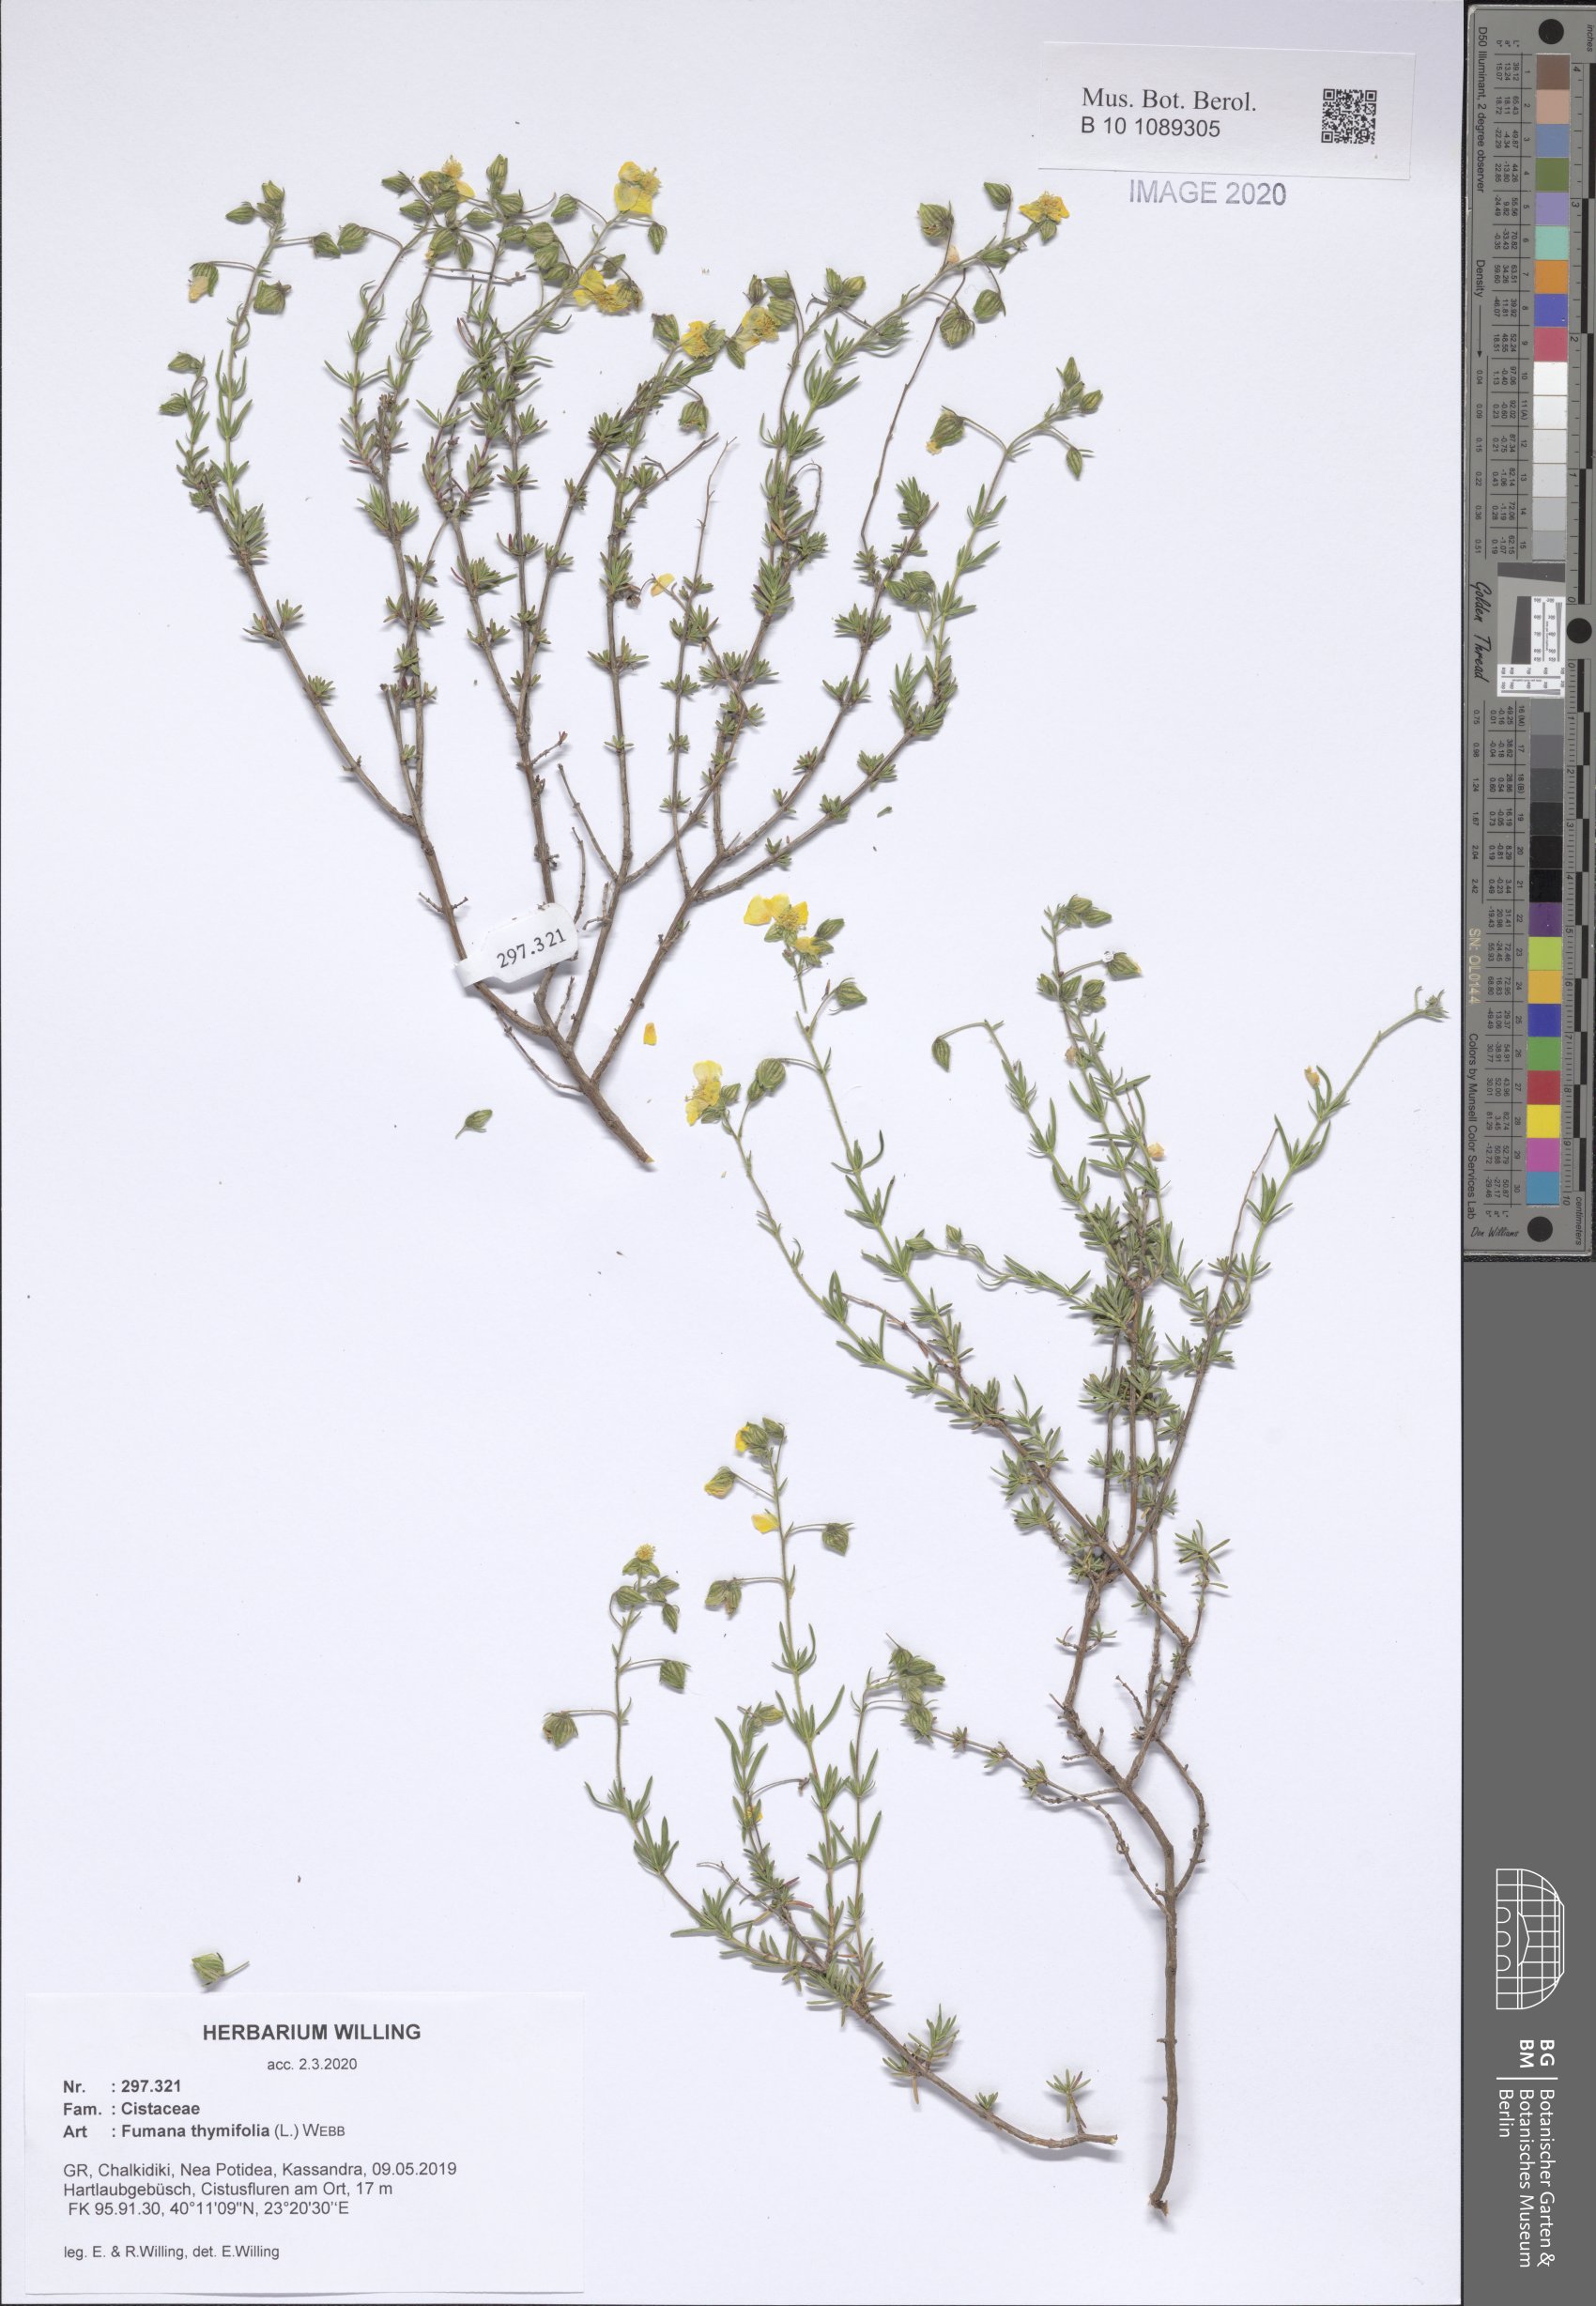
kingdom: Plantae
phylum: Tracheophyta
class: Magnoliopsida
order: Malvales
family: Cistaceae
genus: Fumana
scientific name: Fumana thymifolia
